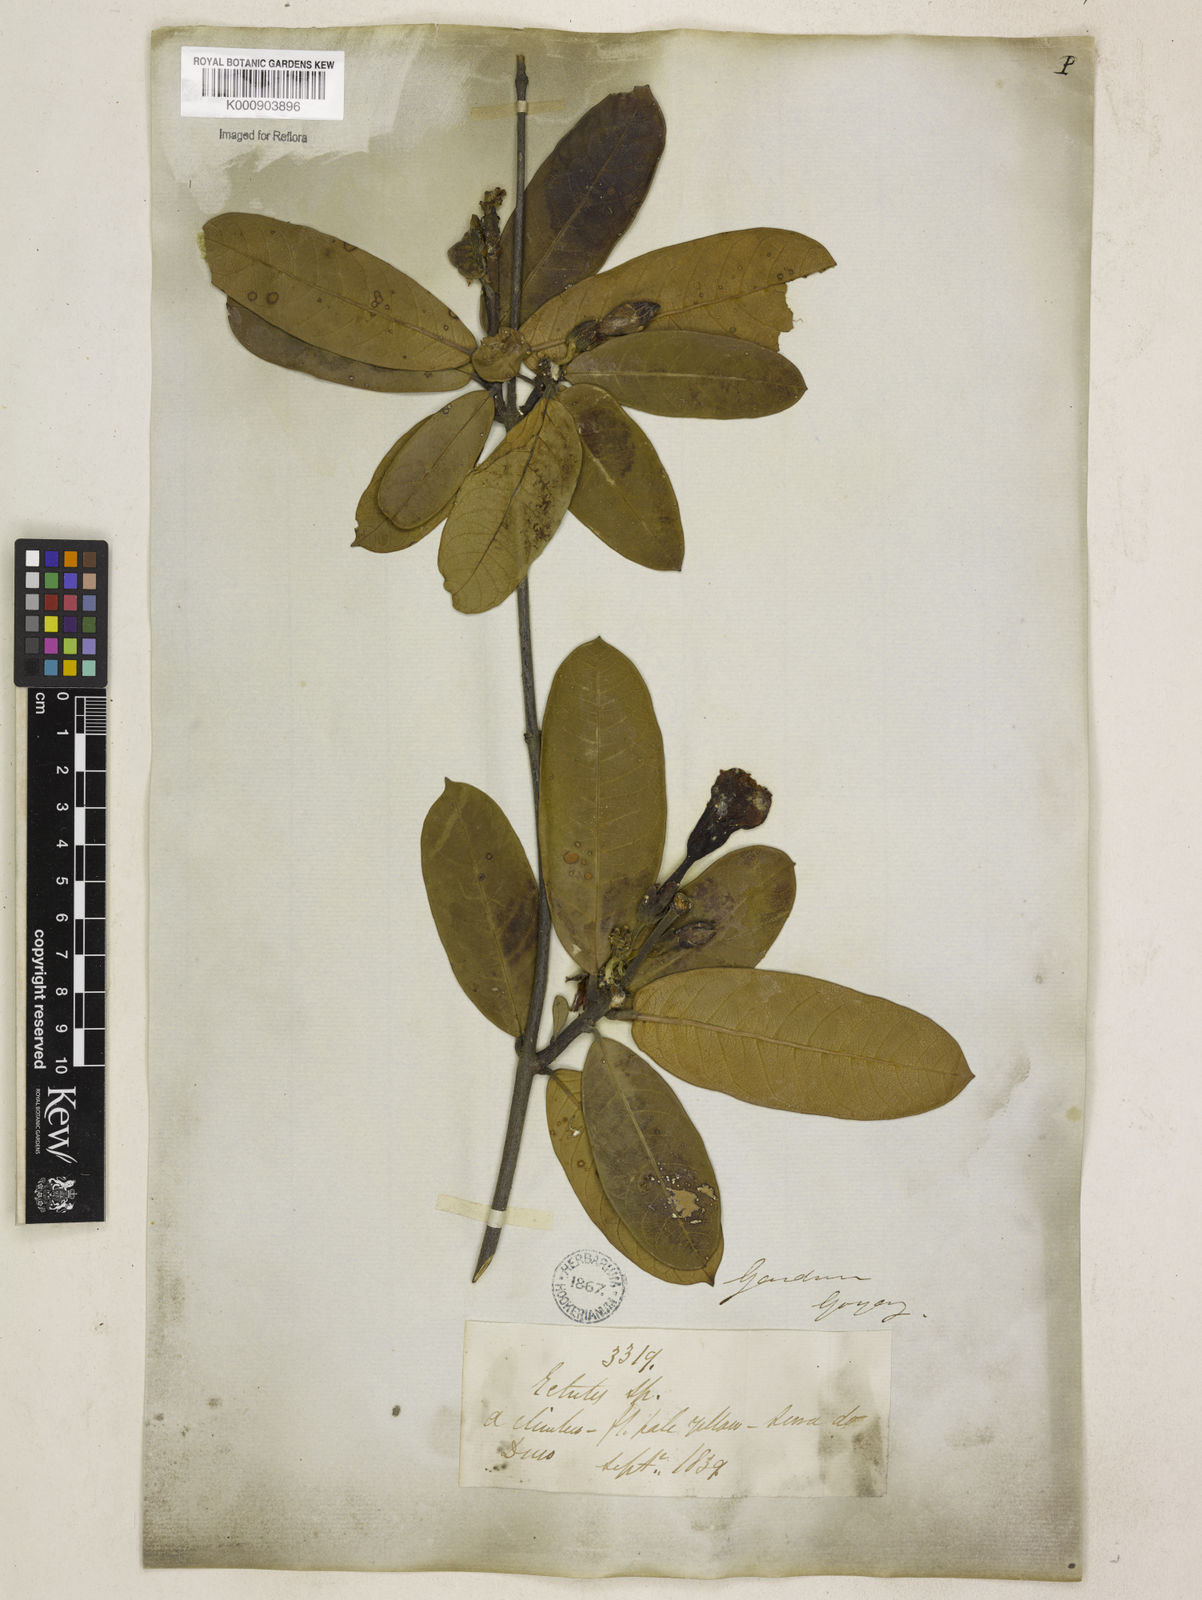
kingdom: Plantae
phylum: Tracheophyta
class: Magnoliopsida
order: Gentianales
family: Apocynaceae
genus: Odontadenia
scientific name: Odontadenia lutea
